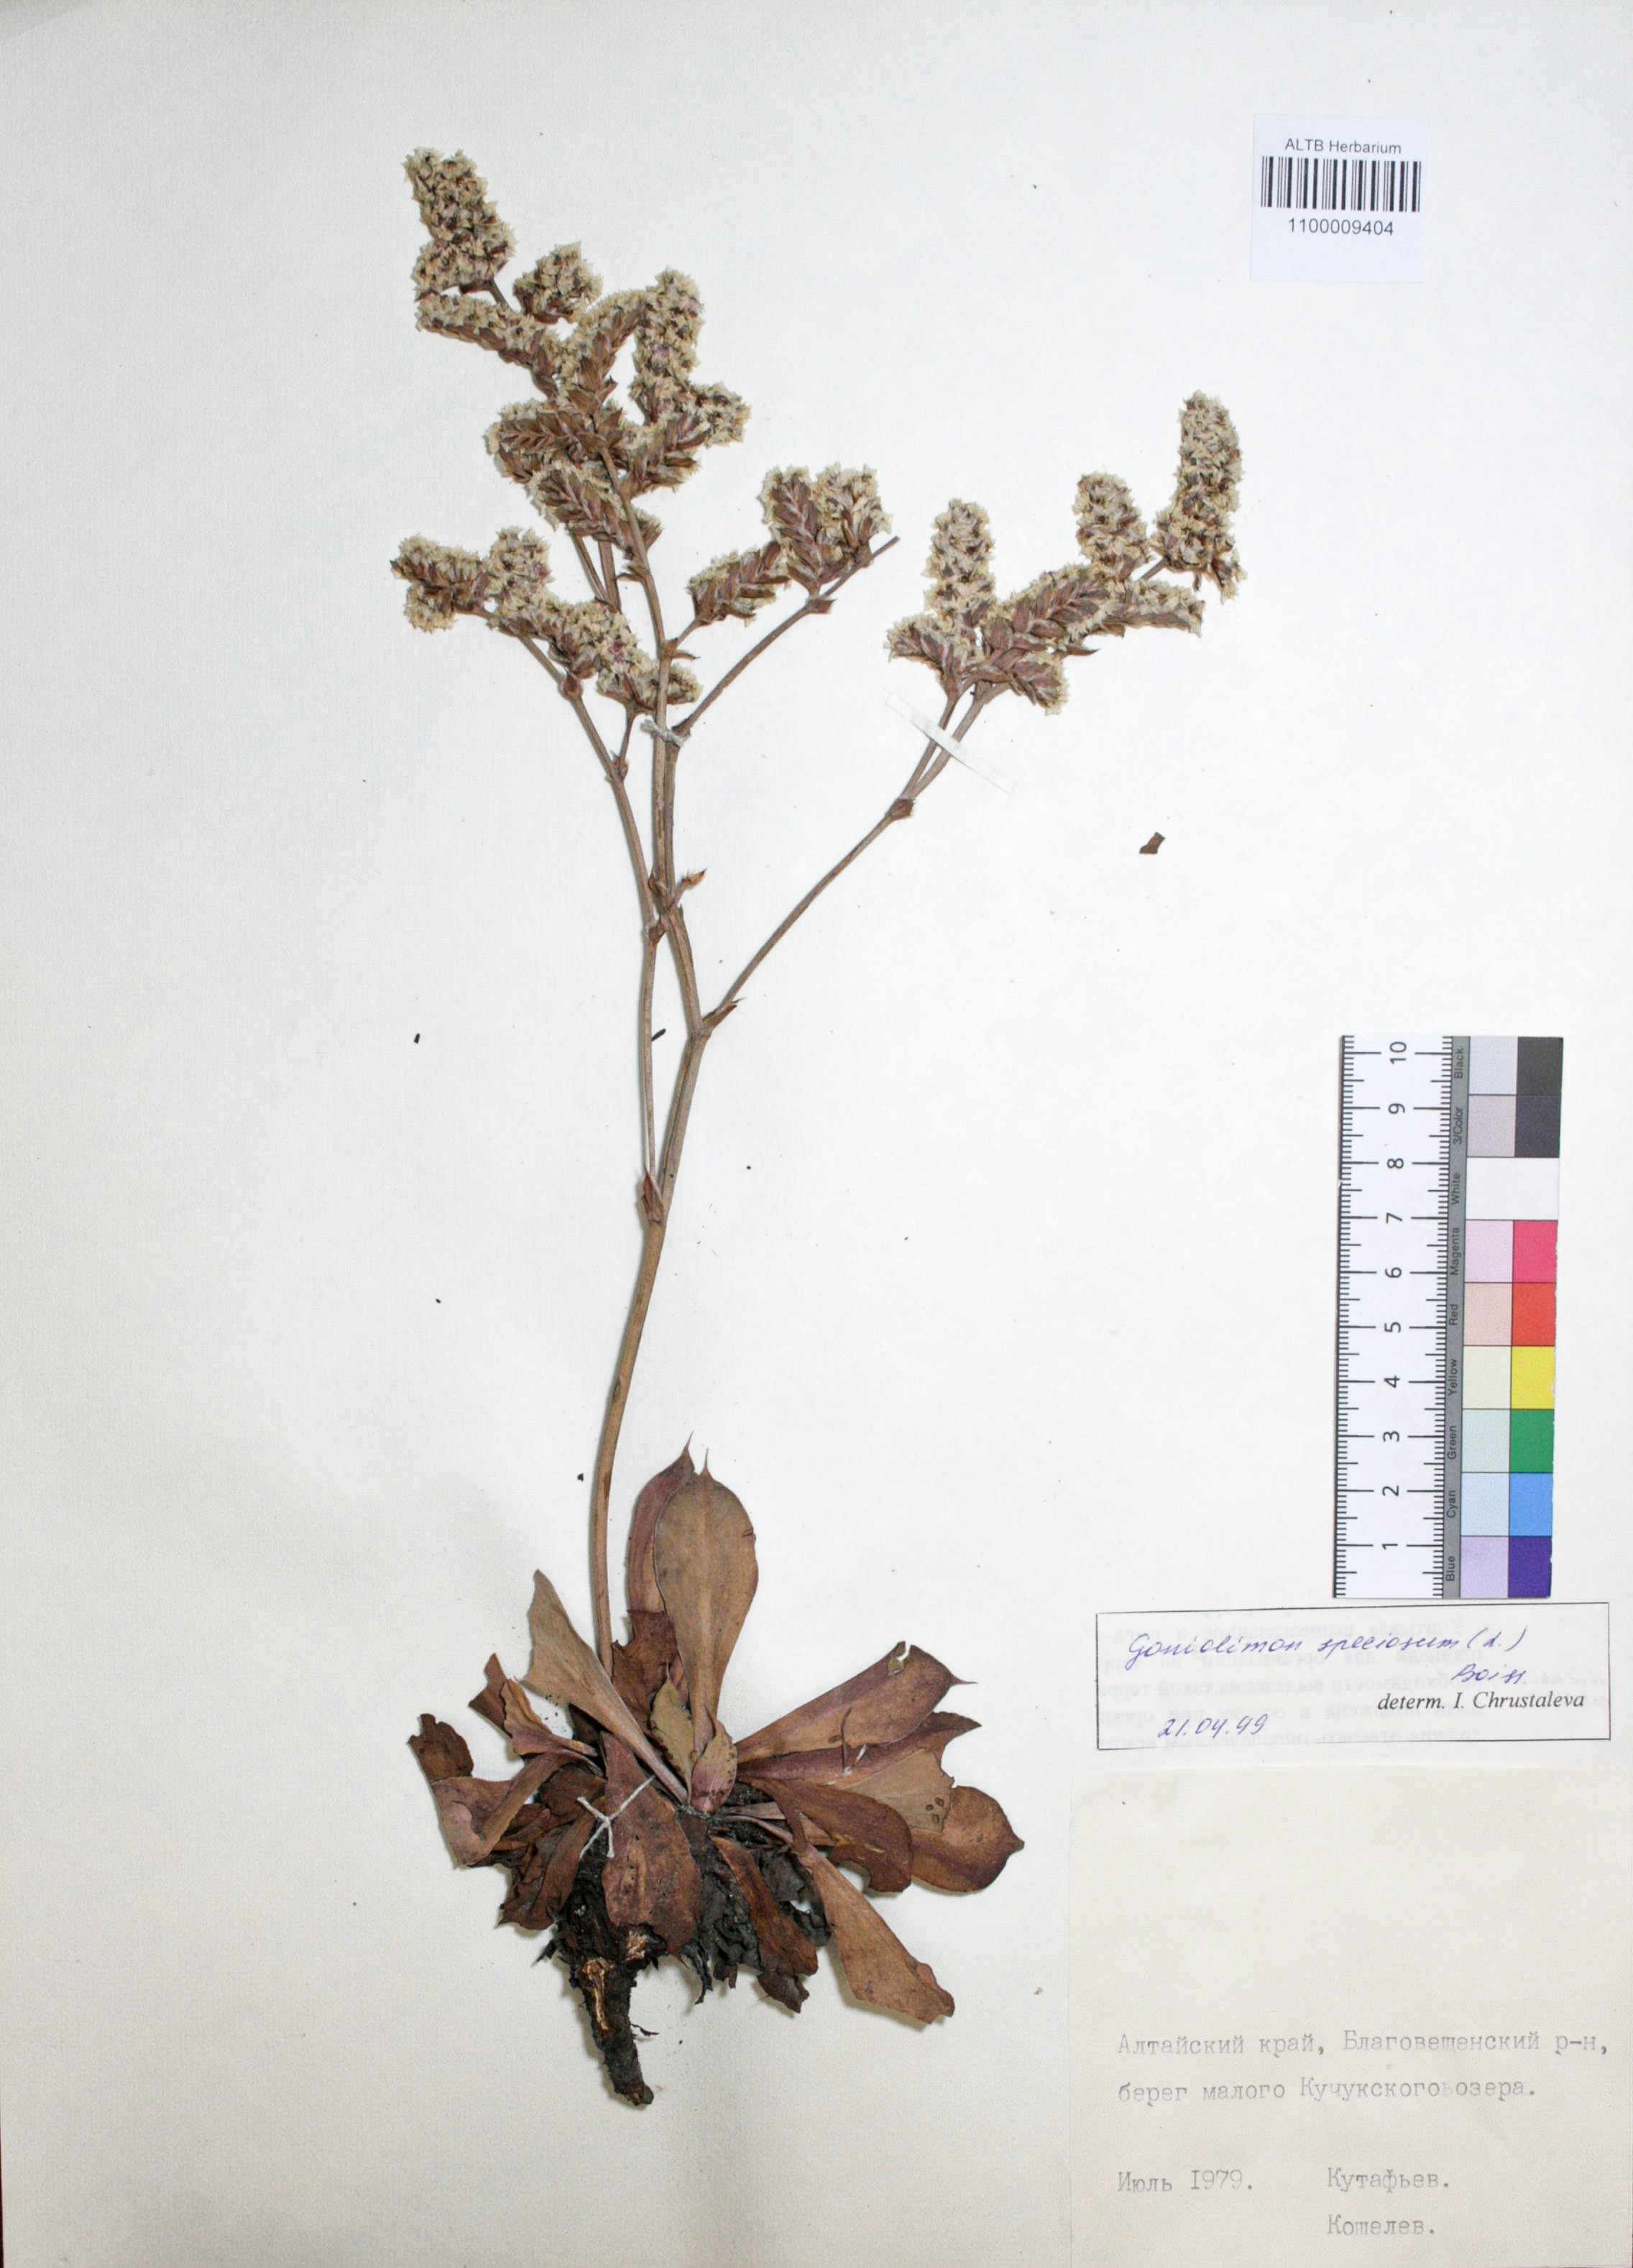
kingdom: Plantae
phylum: Tracheophyta
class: Magnoliopsida
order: Caryophyllales
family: Plumbaginaceae
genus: Goniolimon
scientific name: Goniolimon speciosum
